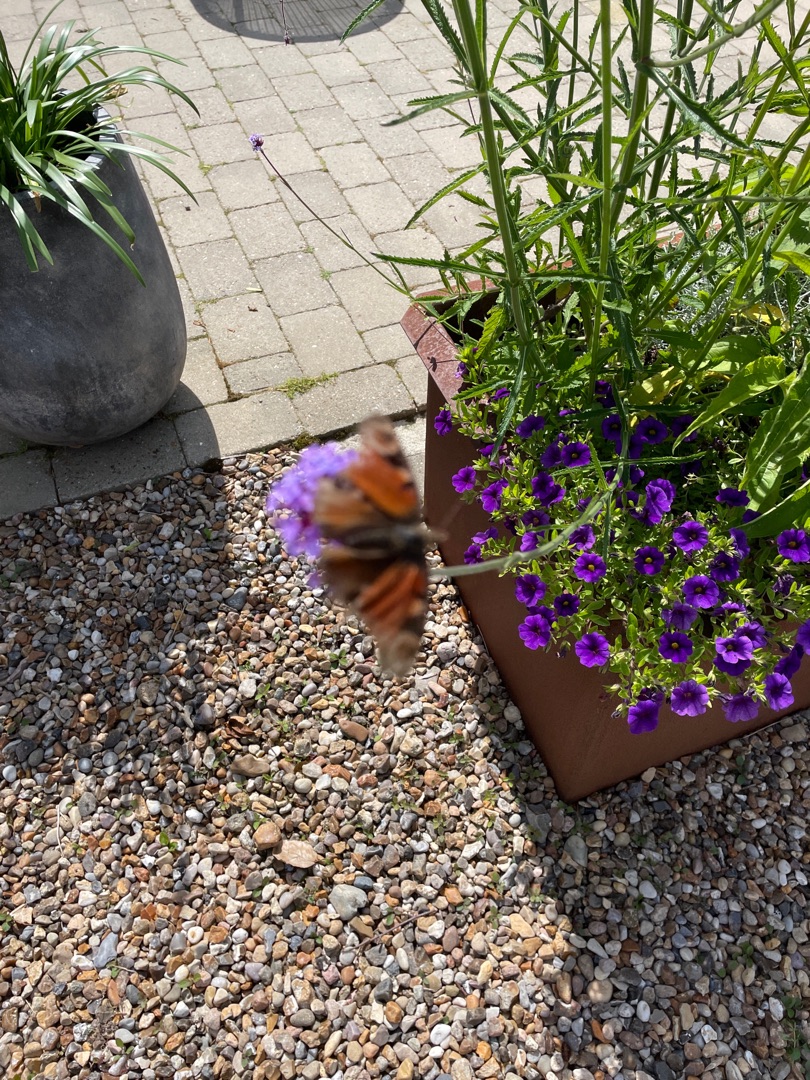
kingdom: Animalia
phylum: Arthropoda
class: Insecta
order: Lepidoptera
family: Nymphalidae
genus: Aglais
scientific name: Aglais io
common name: Dagpåfugleøje
